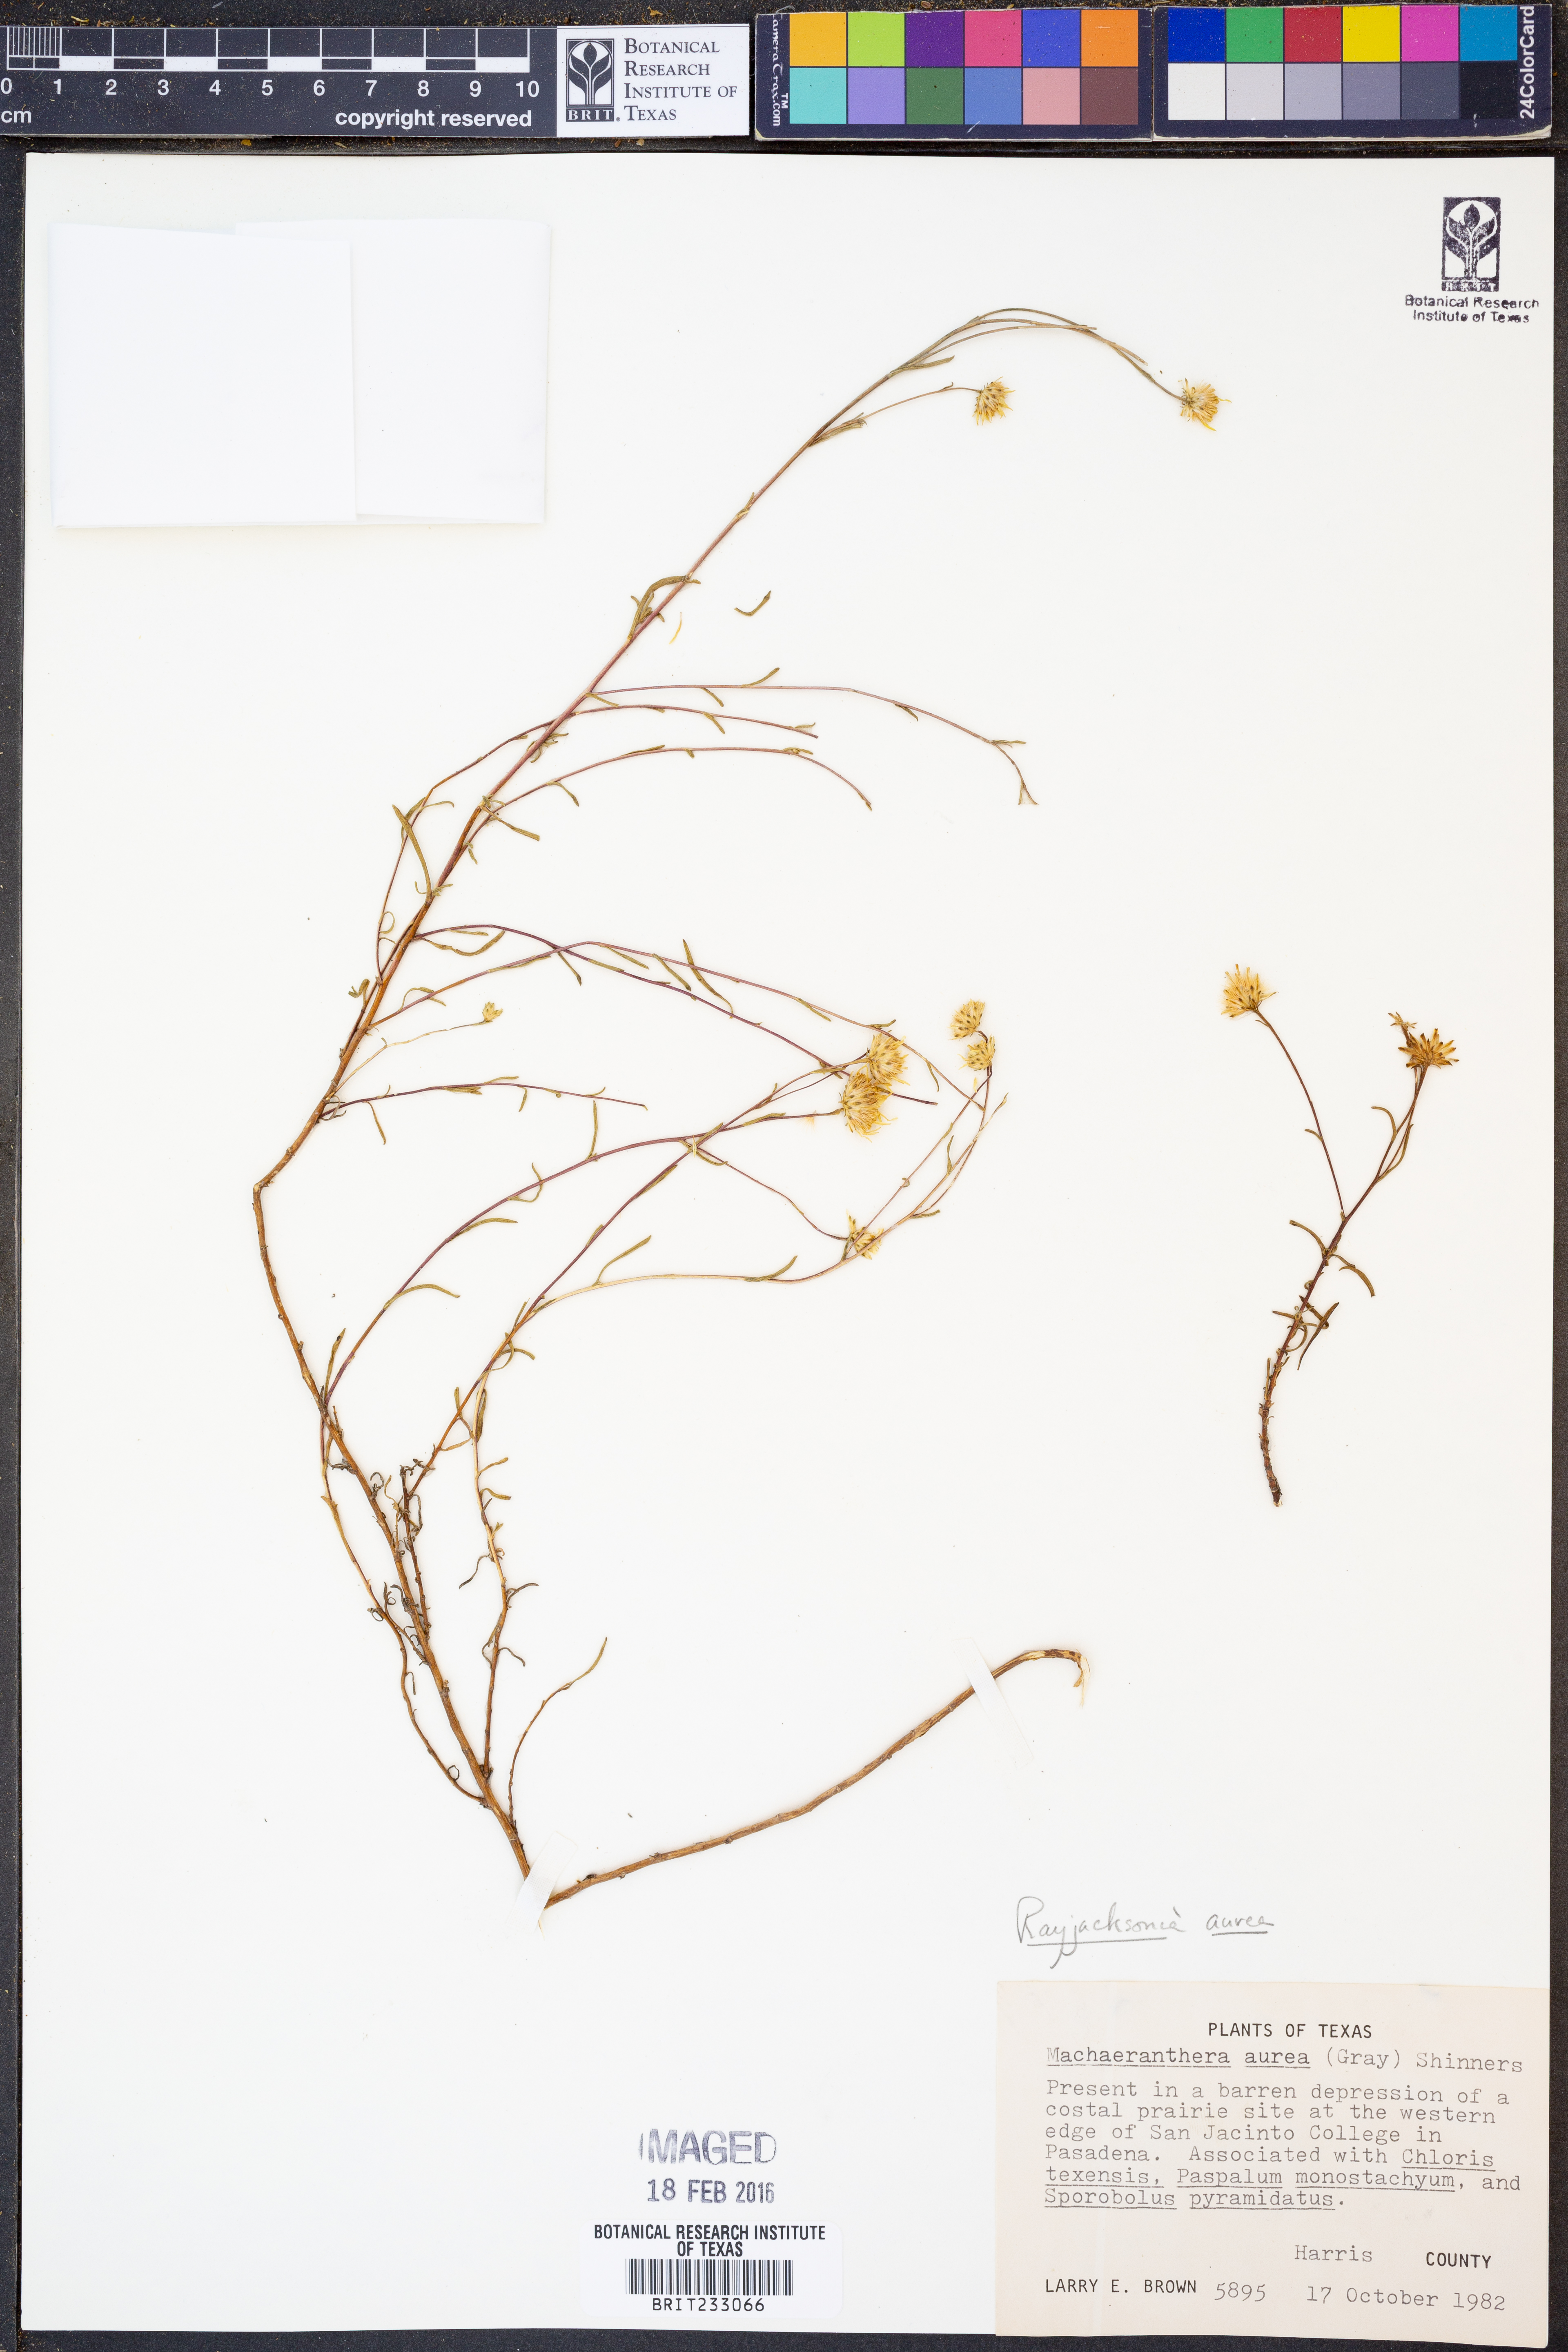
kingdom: Plantae
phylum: Tracheophyta
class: Magnoliopsida
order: Asterales
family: Asteraceae
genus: Rayjacksonia
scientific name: Rayjacksonia aurea
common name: Houston camphor daisy
